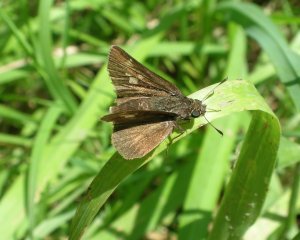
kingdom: Animalia
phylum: Arthropoda
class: Insecta
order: Lepidoptera
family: Hesperiidae
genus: Vernia
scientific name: Vernia verna
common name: Little Glassywing
